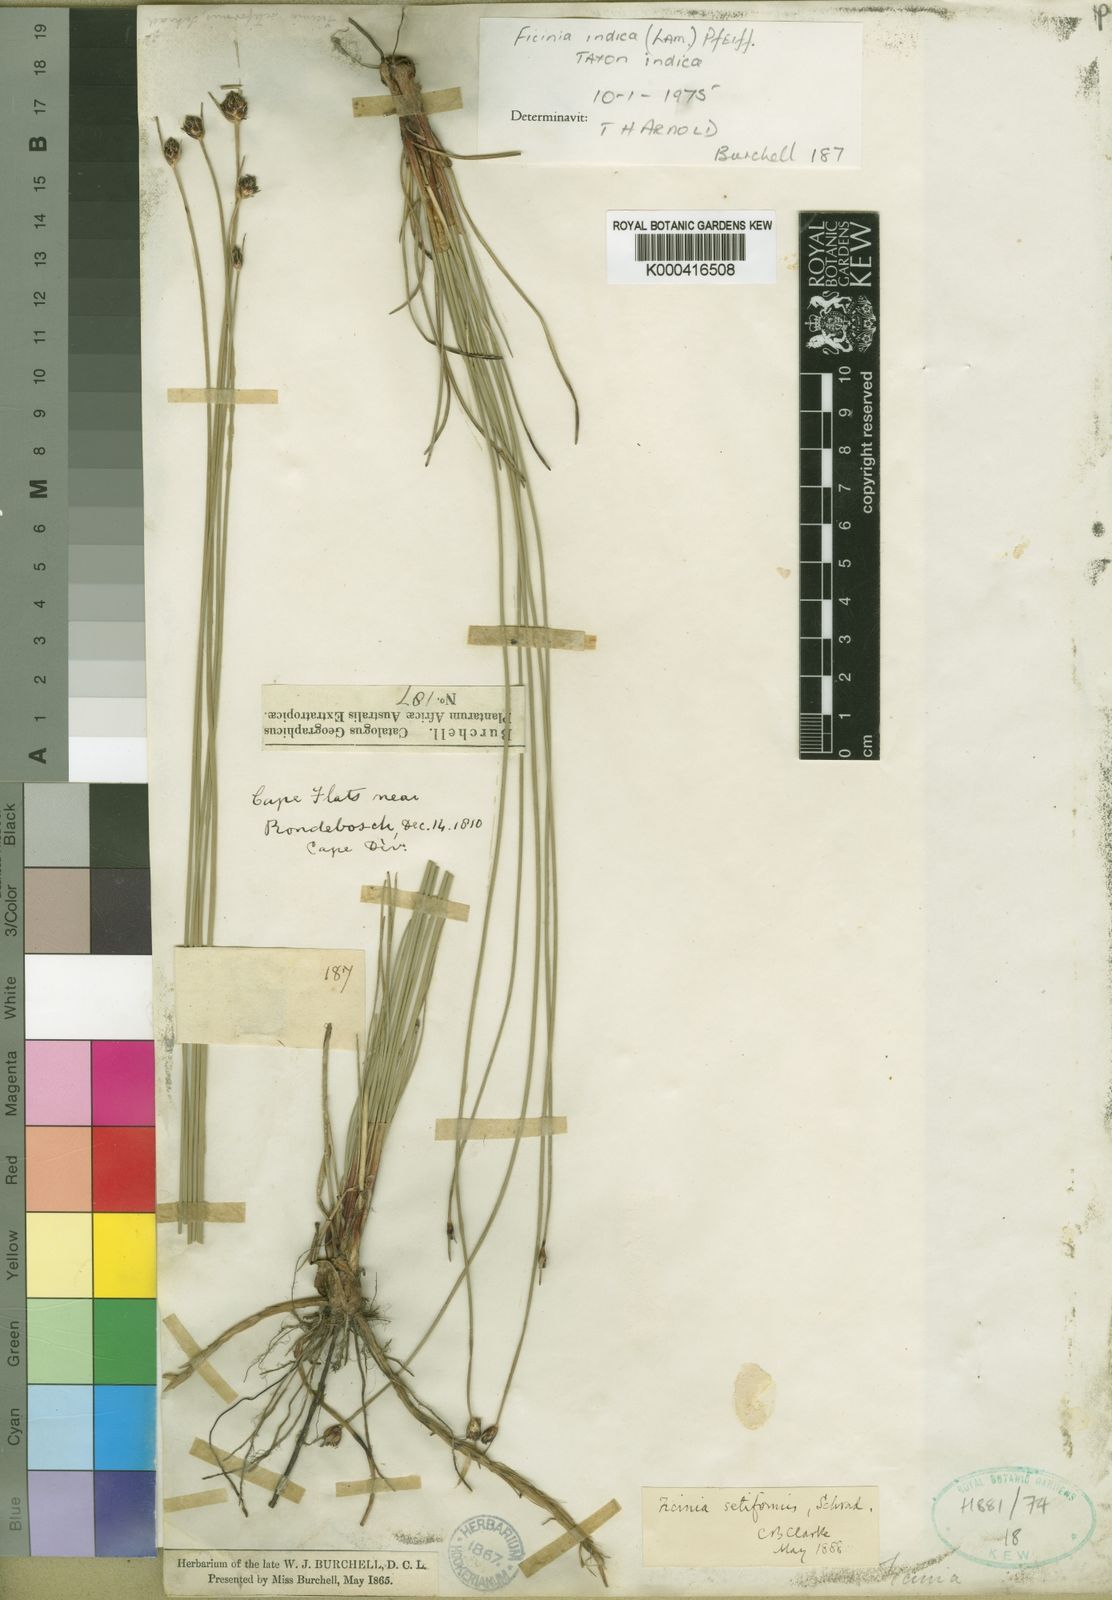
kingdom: Plantae
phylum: Tracheophyta
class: Liliopsida
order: Poales
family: Cyperaceae
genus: Ficinia
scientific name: Ficinia indica
